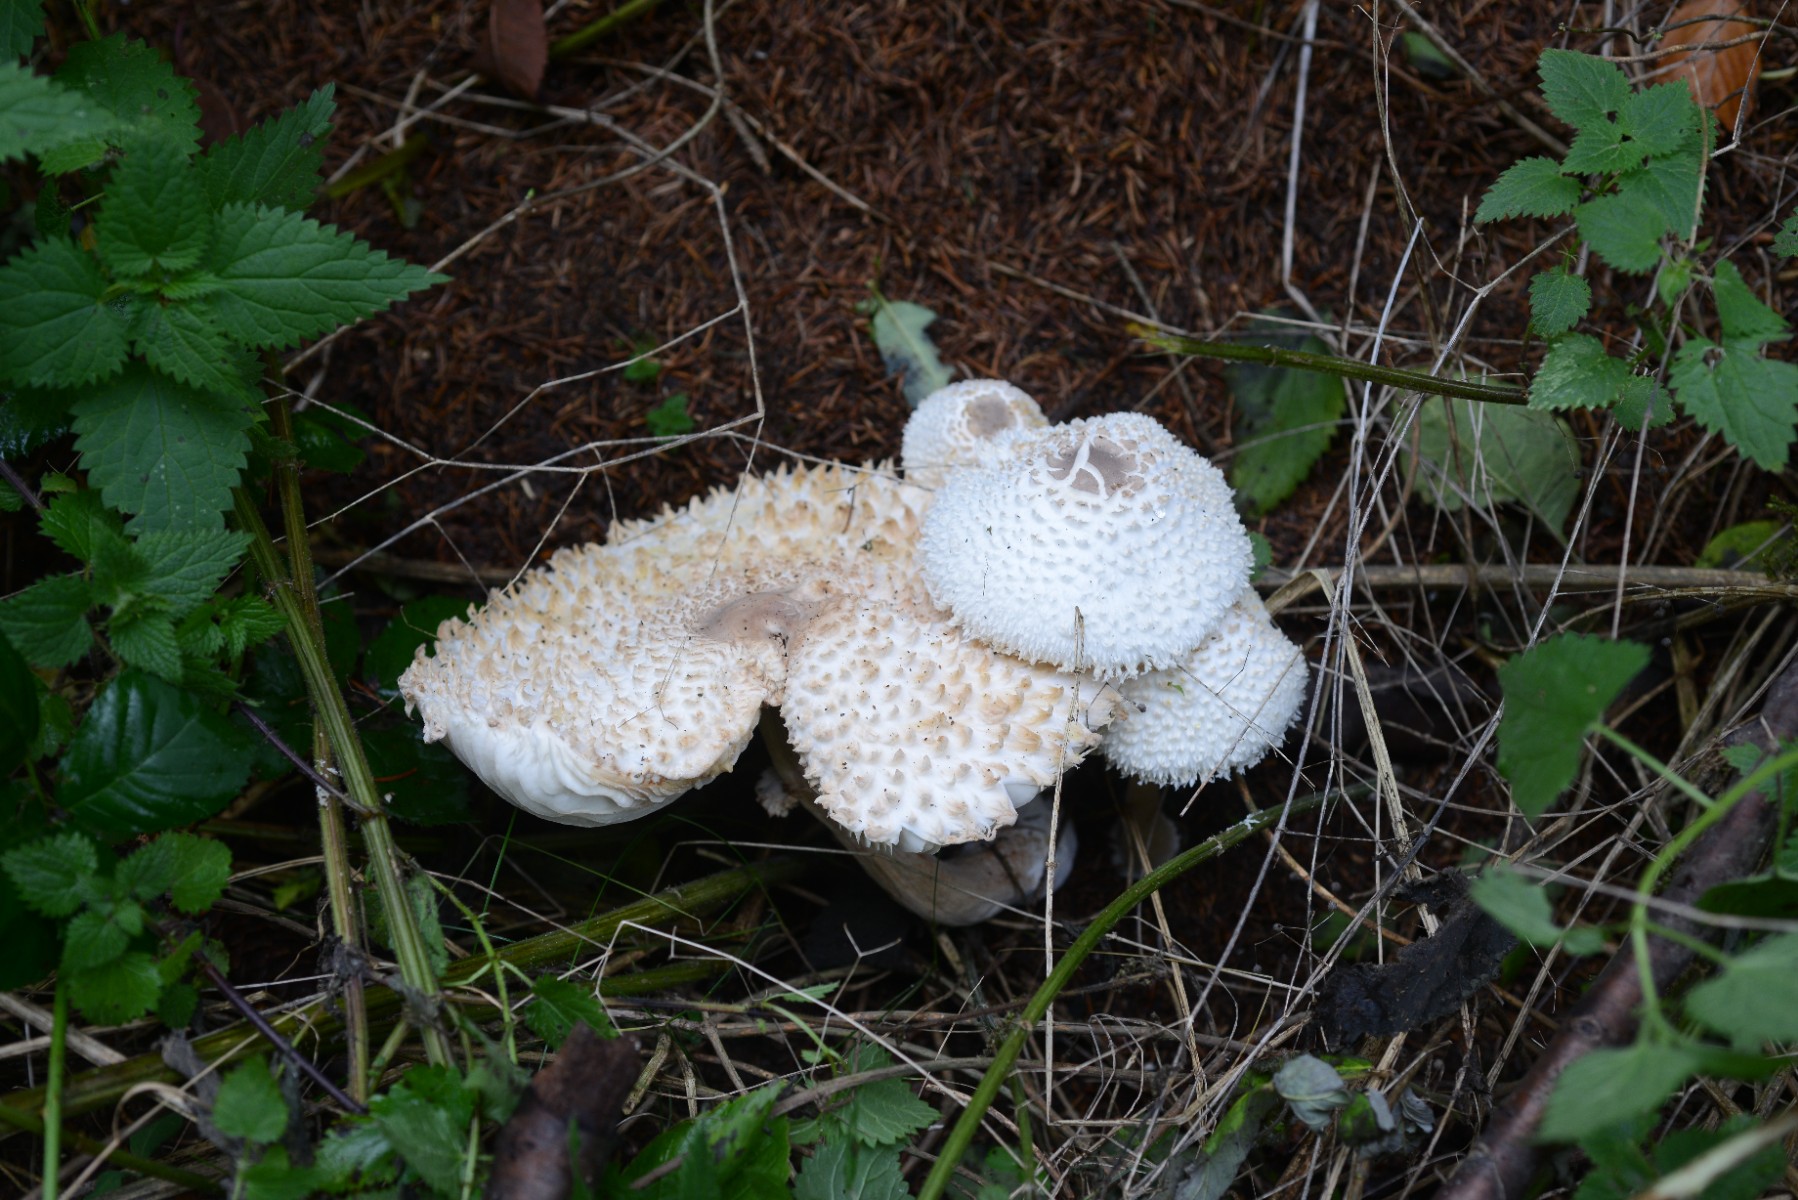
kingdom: Fungi
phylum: Basidiomycota
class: Agaricomycetes
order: Agaricales
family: Agaricaceae
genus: Leucoagaricus
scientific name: Leucoagaricus nympharum
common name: gran-silkehat
